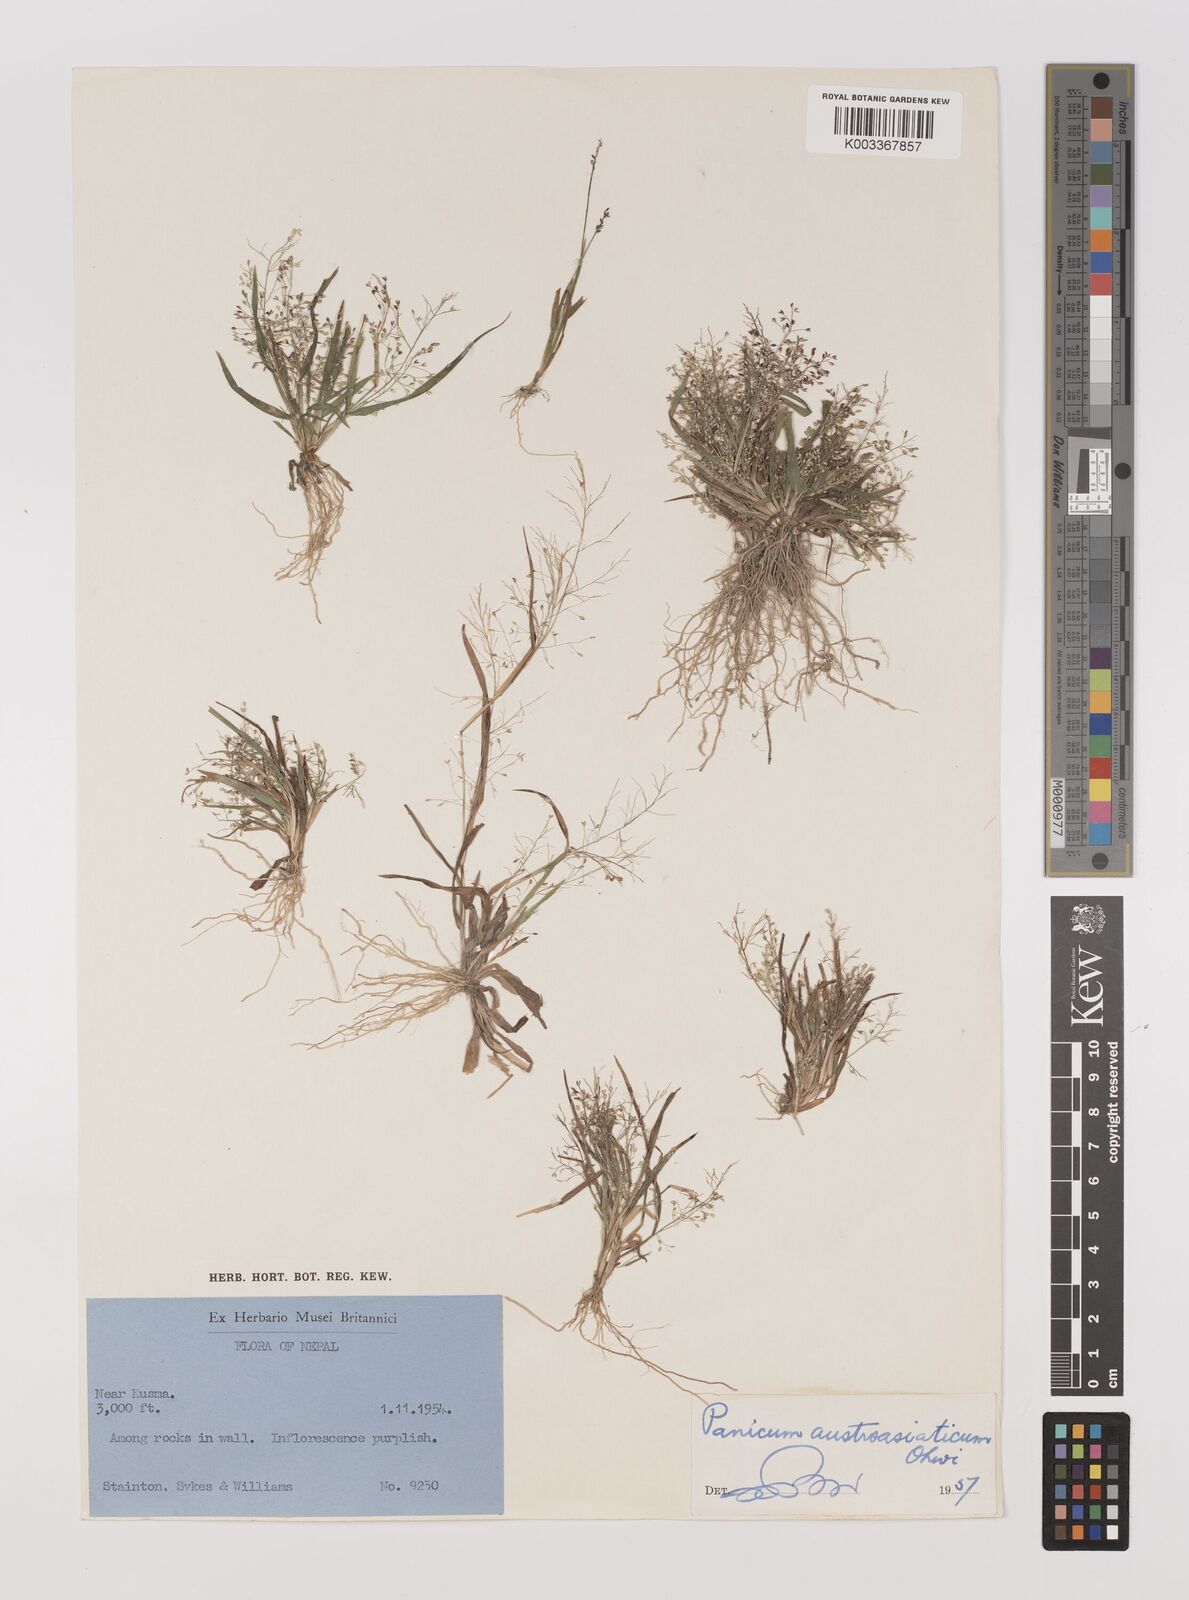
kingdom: Plantae
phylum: Tracheophyta
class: Liliopsida
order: Poales
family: Poaceae
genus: Panicum
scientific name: Panicum humile
